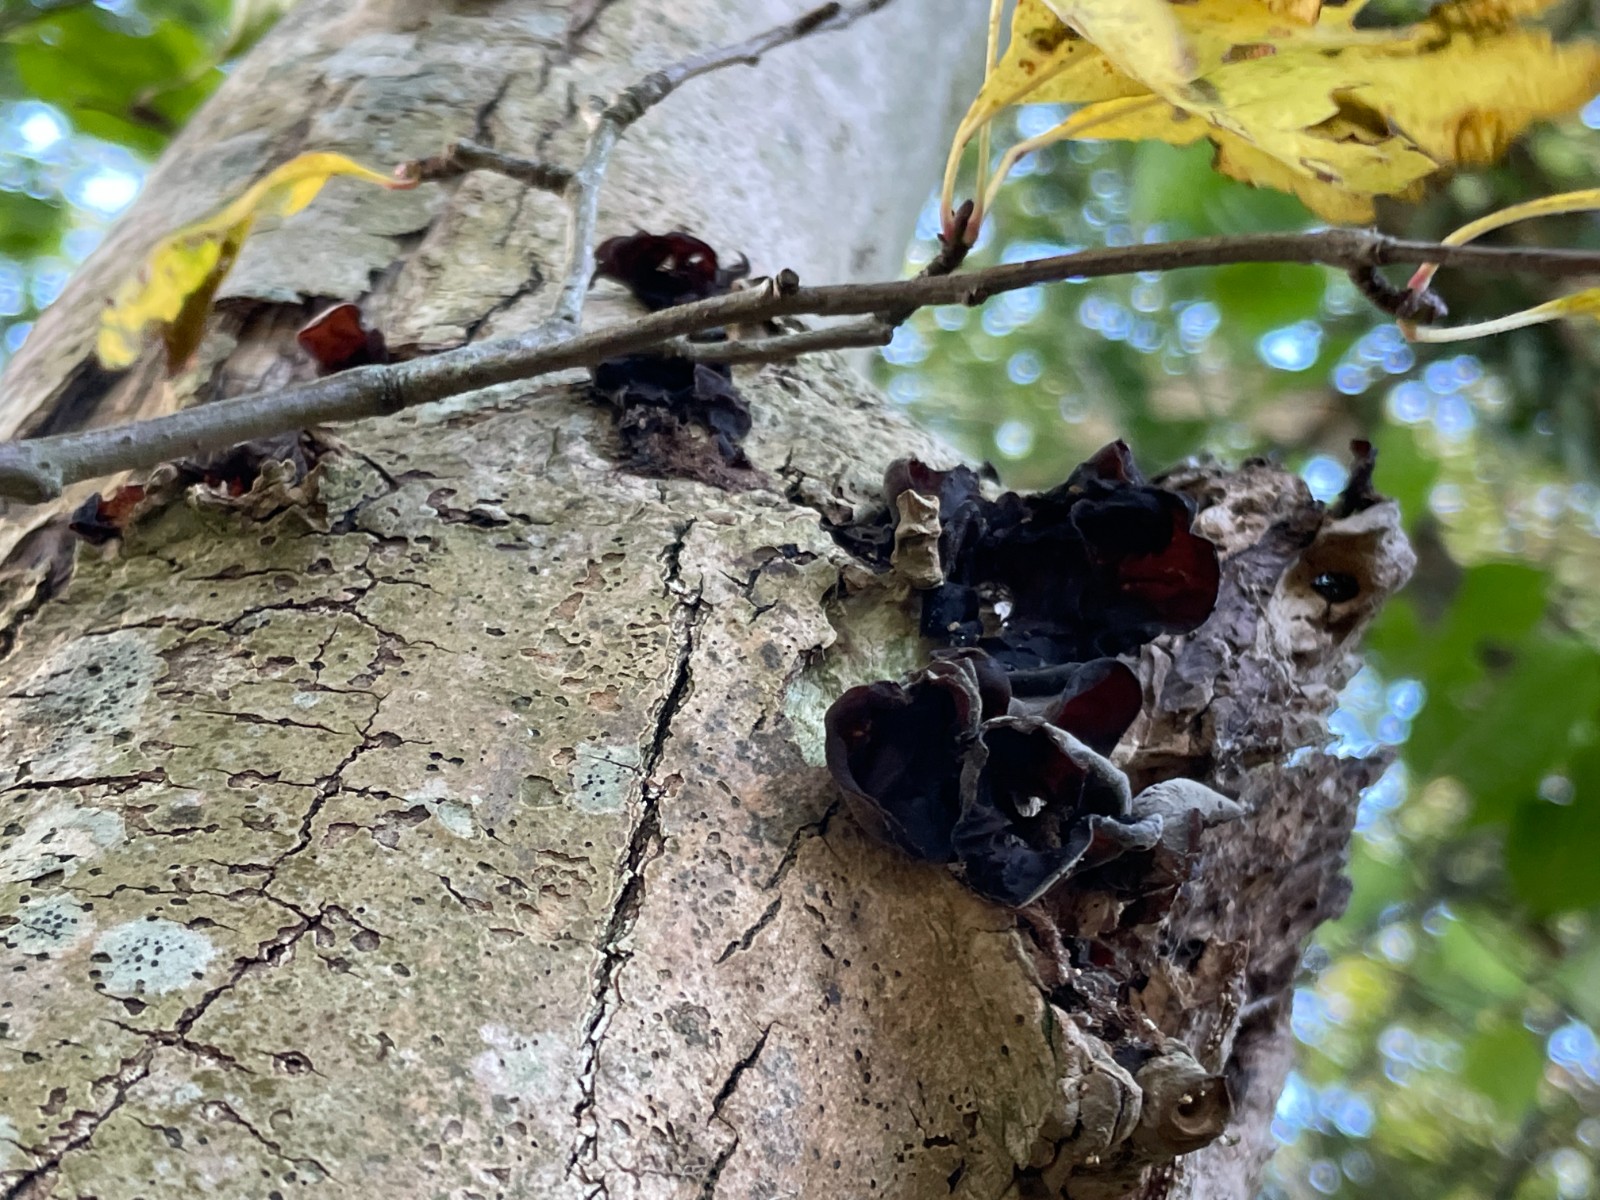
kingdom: Fungi
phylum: Basidiomycota
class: Agaricomycetes
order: Auriculariales
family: Auriculariaceae
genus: Auricularia
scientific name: Auricularia auricula-judae
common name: almindelig judasøre
